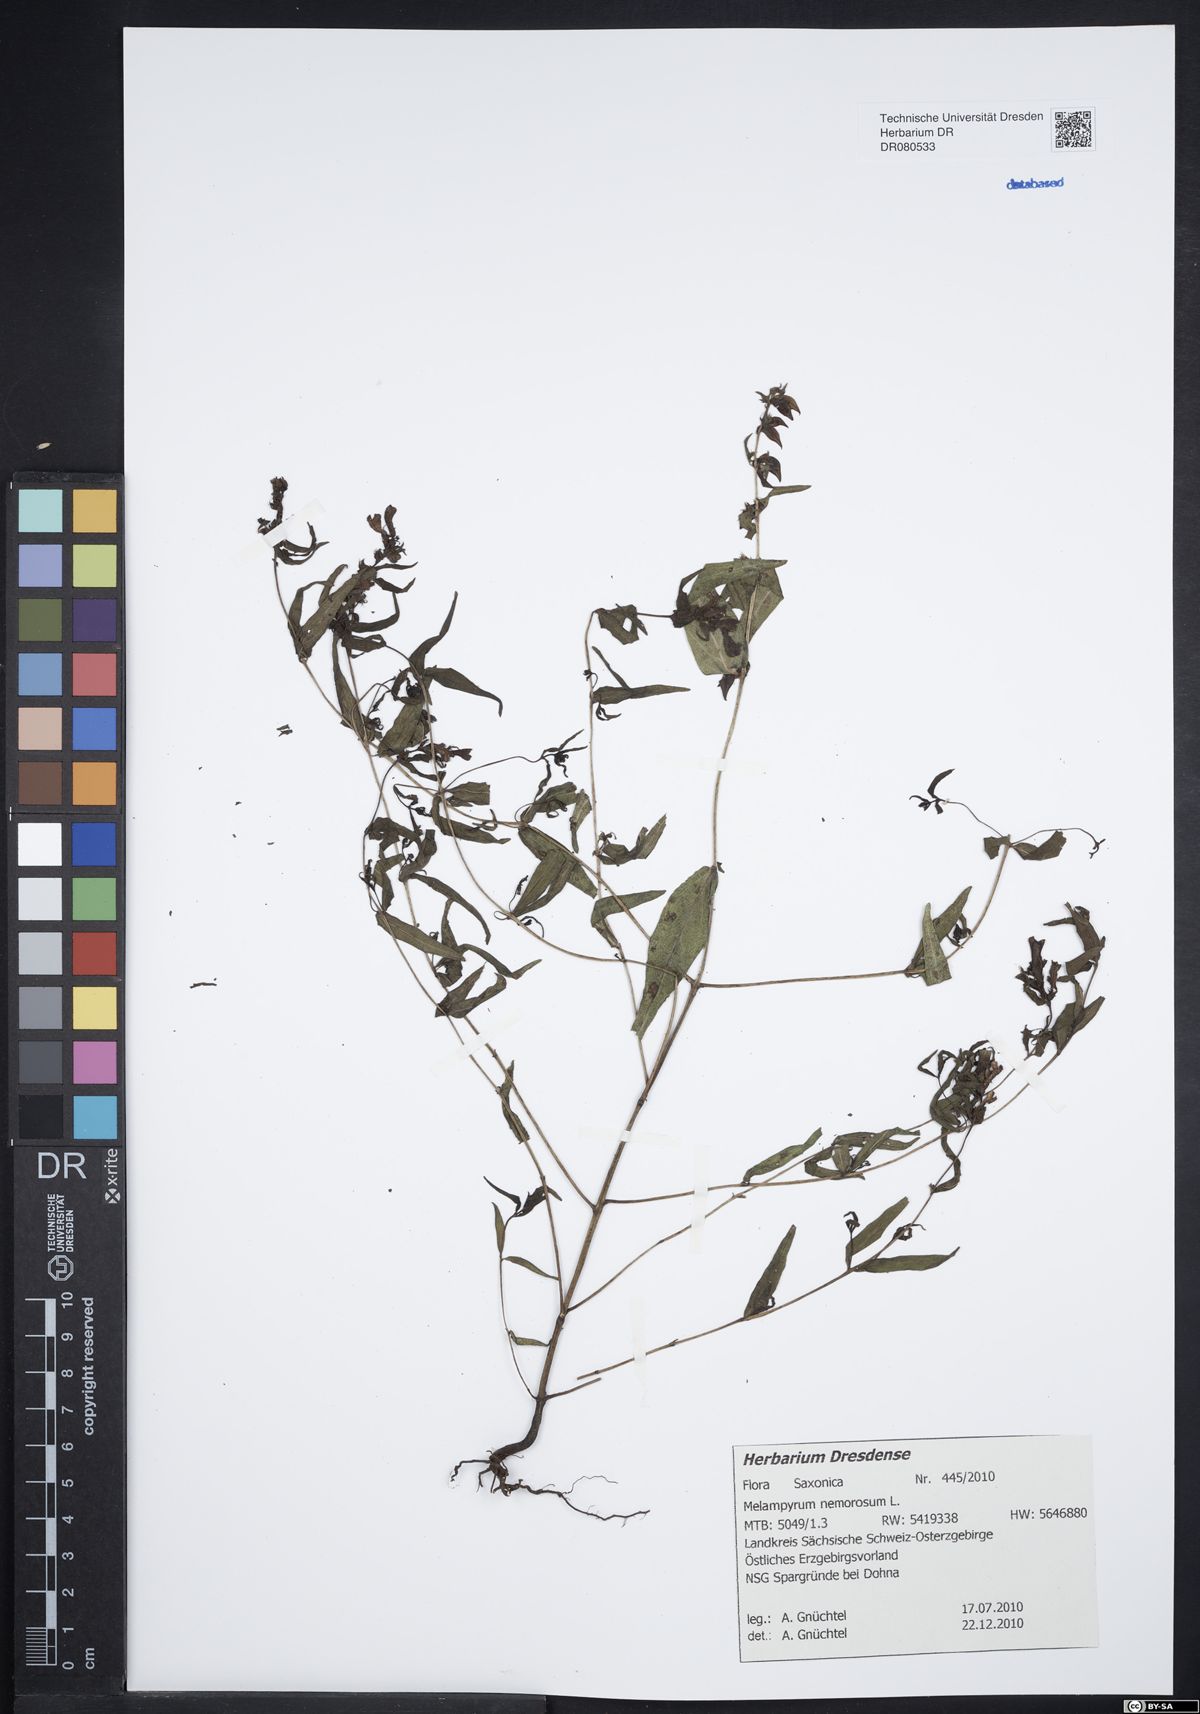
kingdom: Plantae
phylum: Tracheophyta
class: Magnoliopsida
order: Lamiales
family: Orobanchaceae
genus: Melampyrum
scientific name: Melampyrum nemorosum
